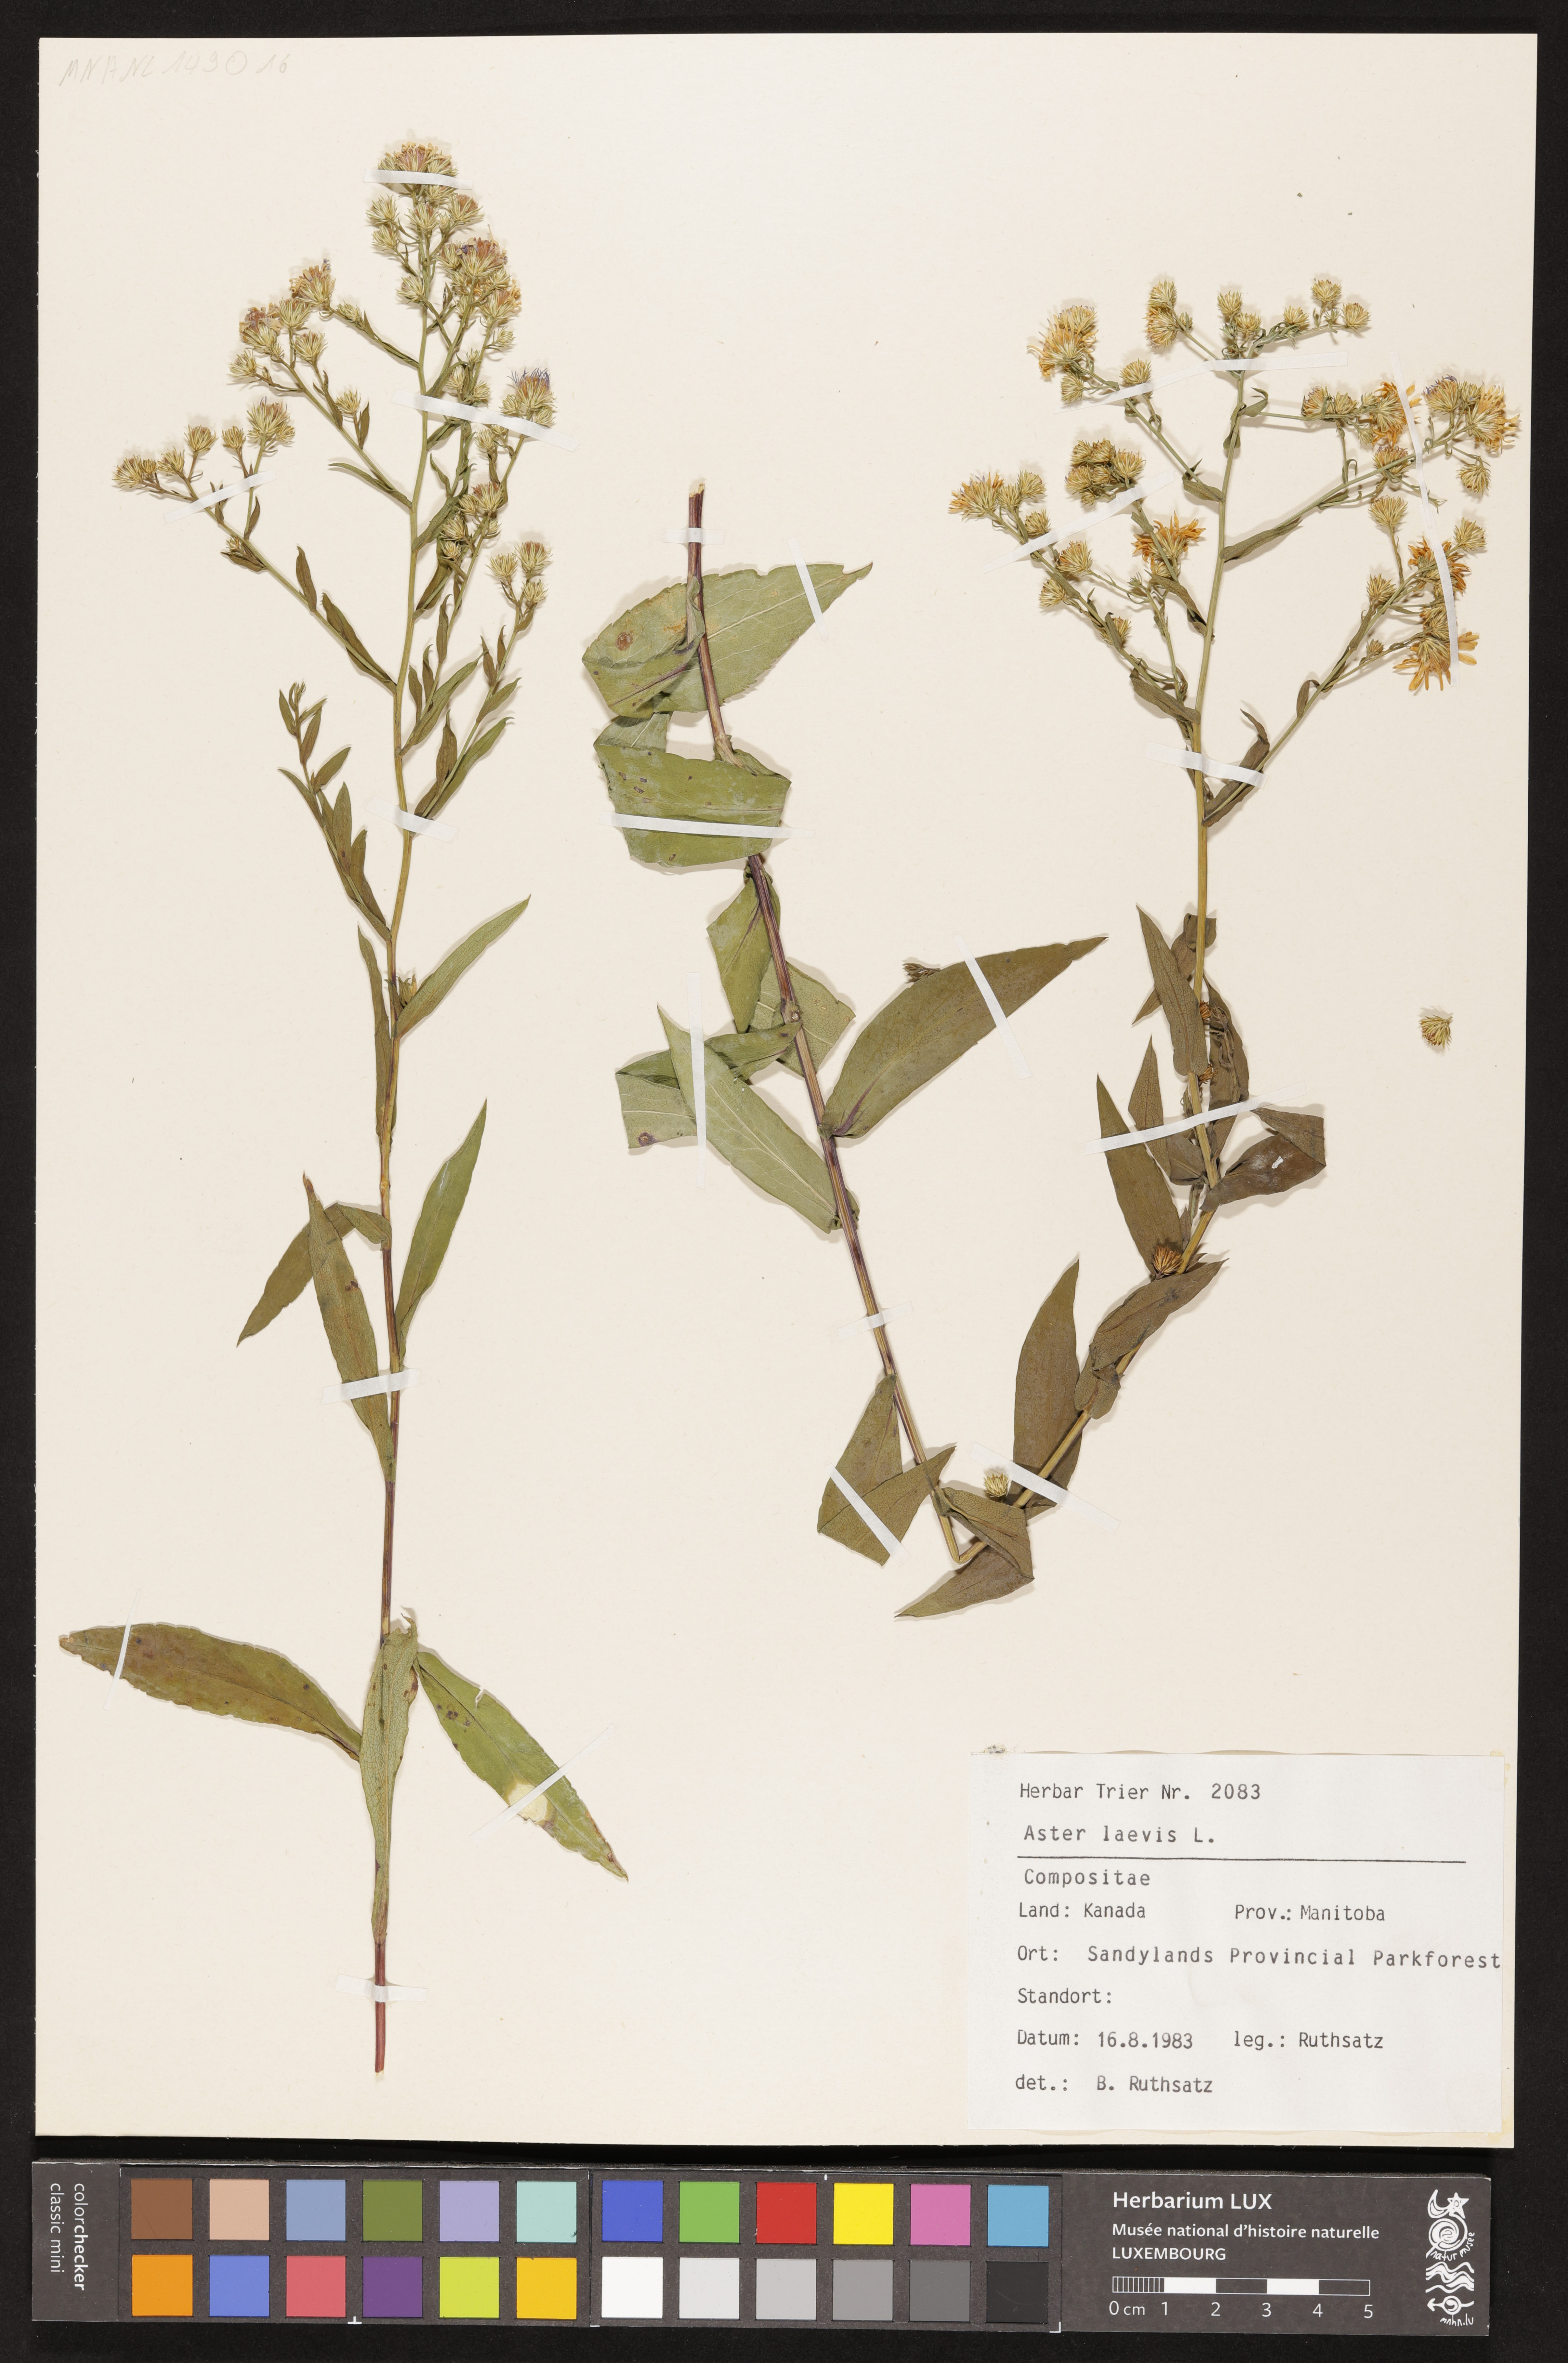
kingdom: Plantae
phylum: Tracheophyta
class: Magnoliopsida
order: Asterales
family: Asteraceae
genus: Symphyotrichum
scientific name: Symphyotrichum laeve
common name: Glaucous aster
